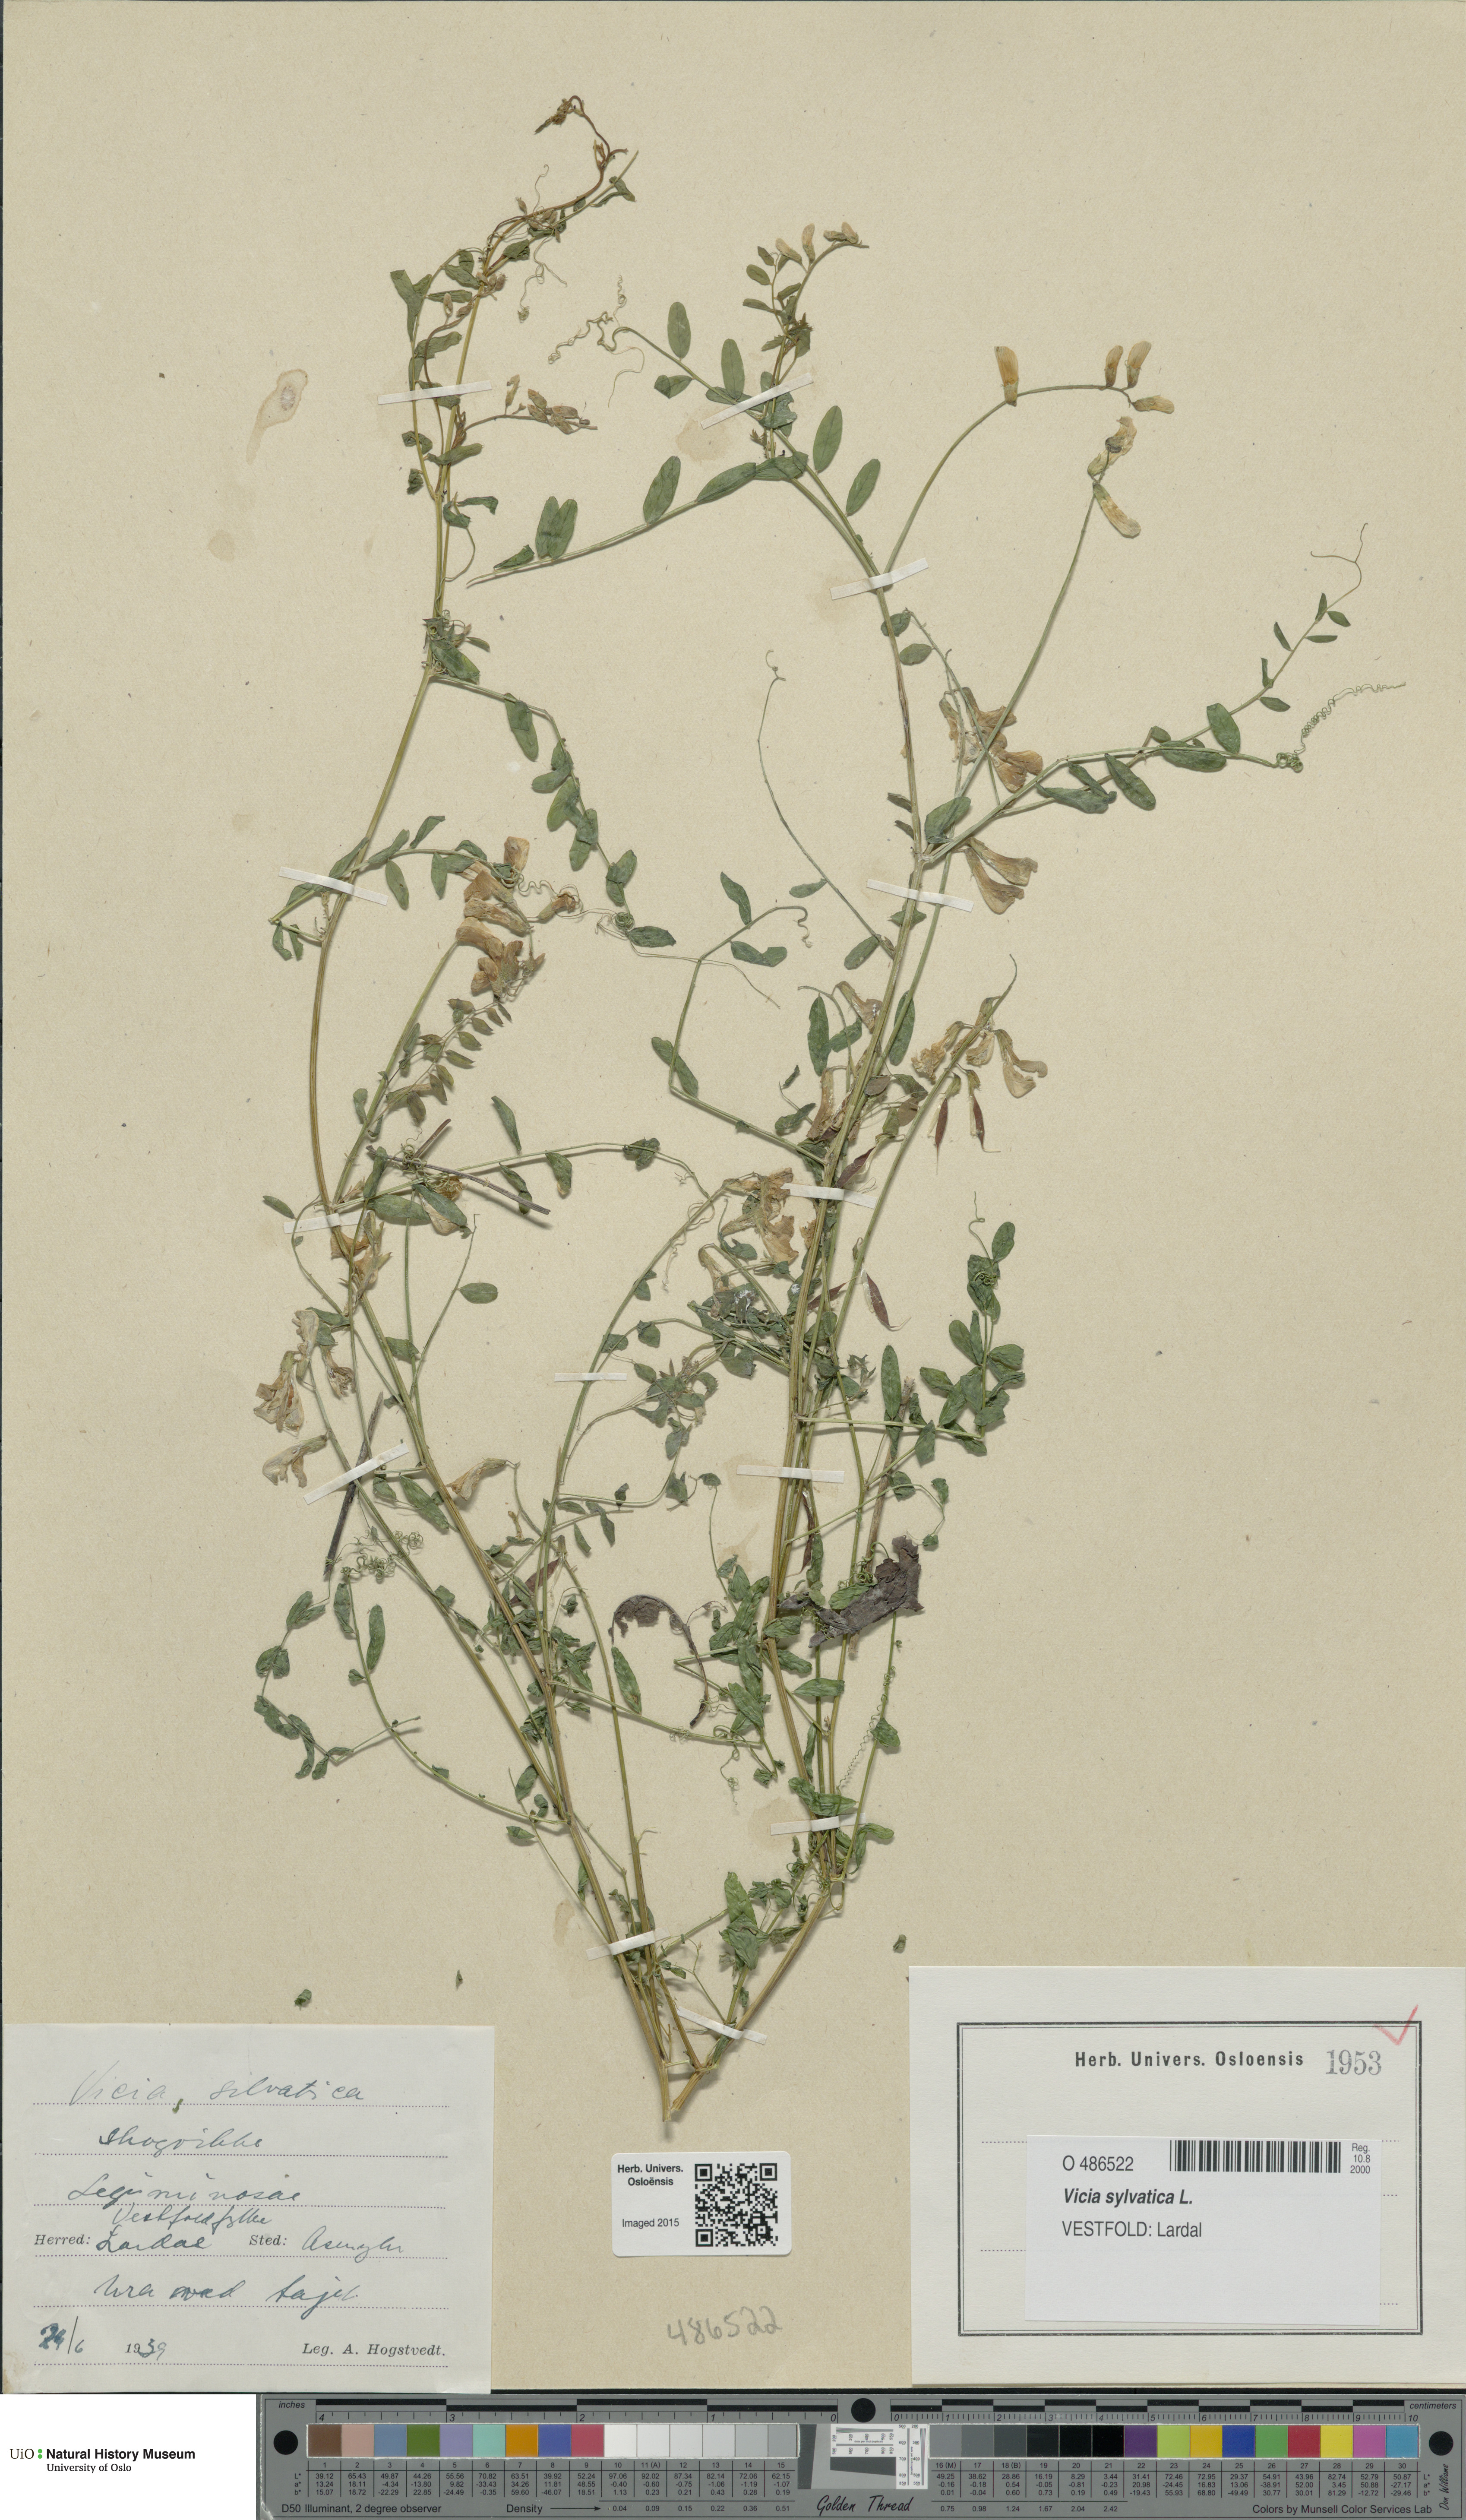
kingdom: Plantae
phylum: Tracheophyta
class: Magnoliopsida
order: Fabales
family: Fabaceae
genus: Vicia
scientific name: Vicia sylvatica
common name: Wood vetch
